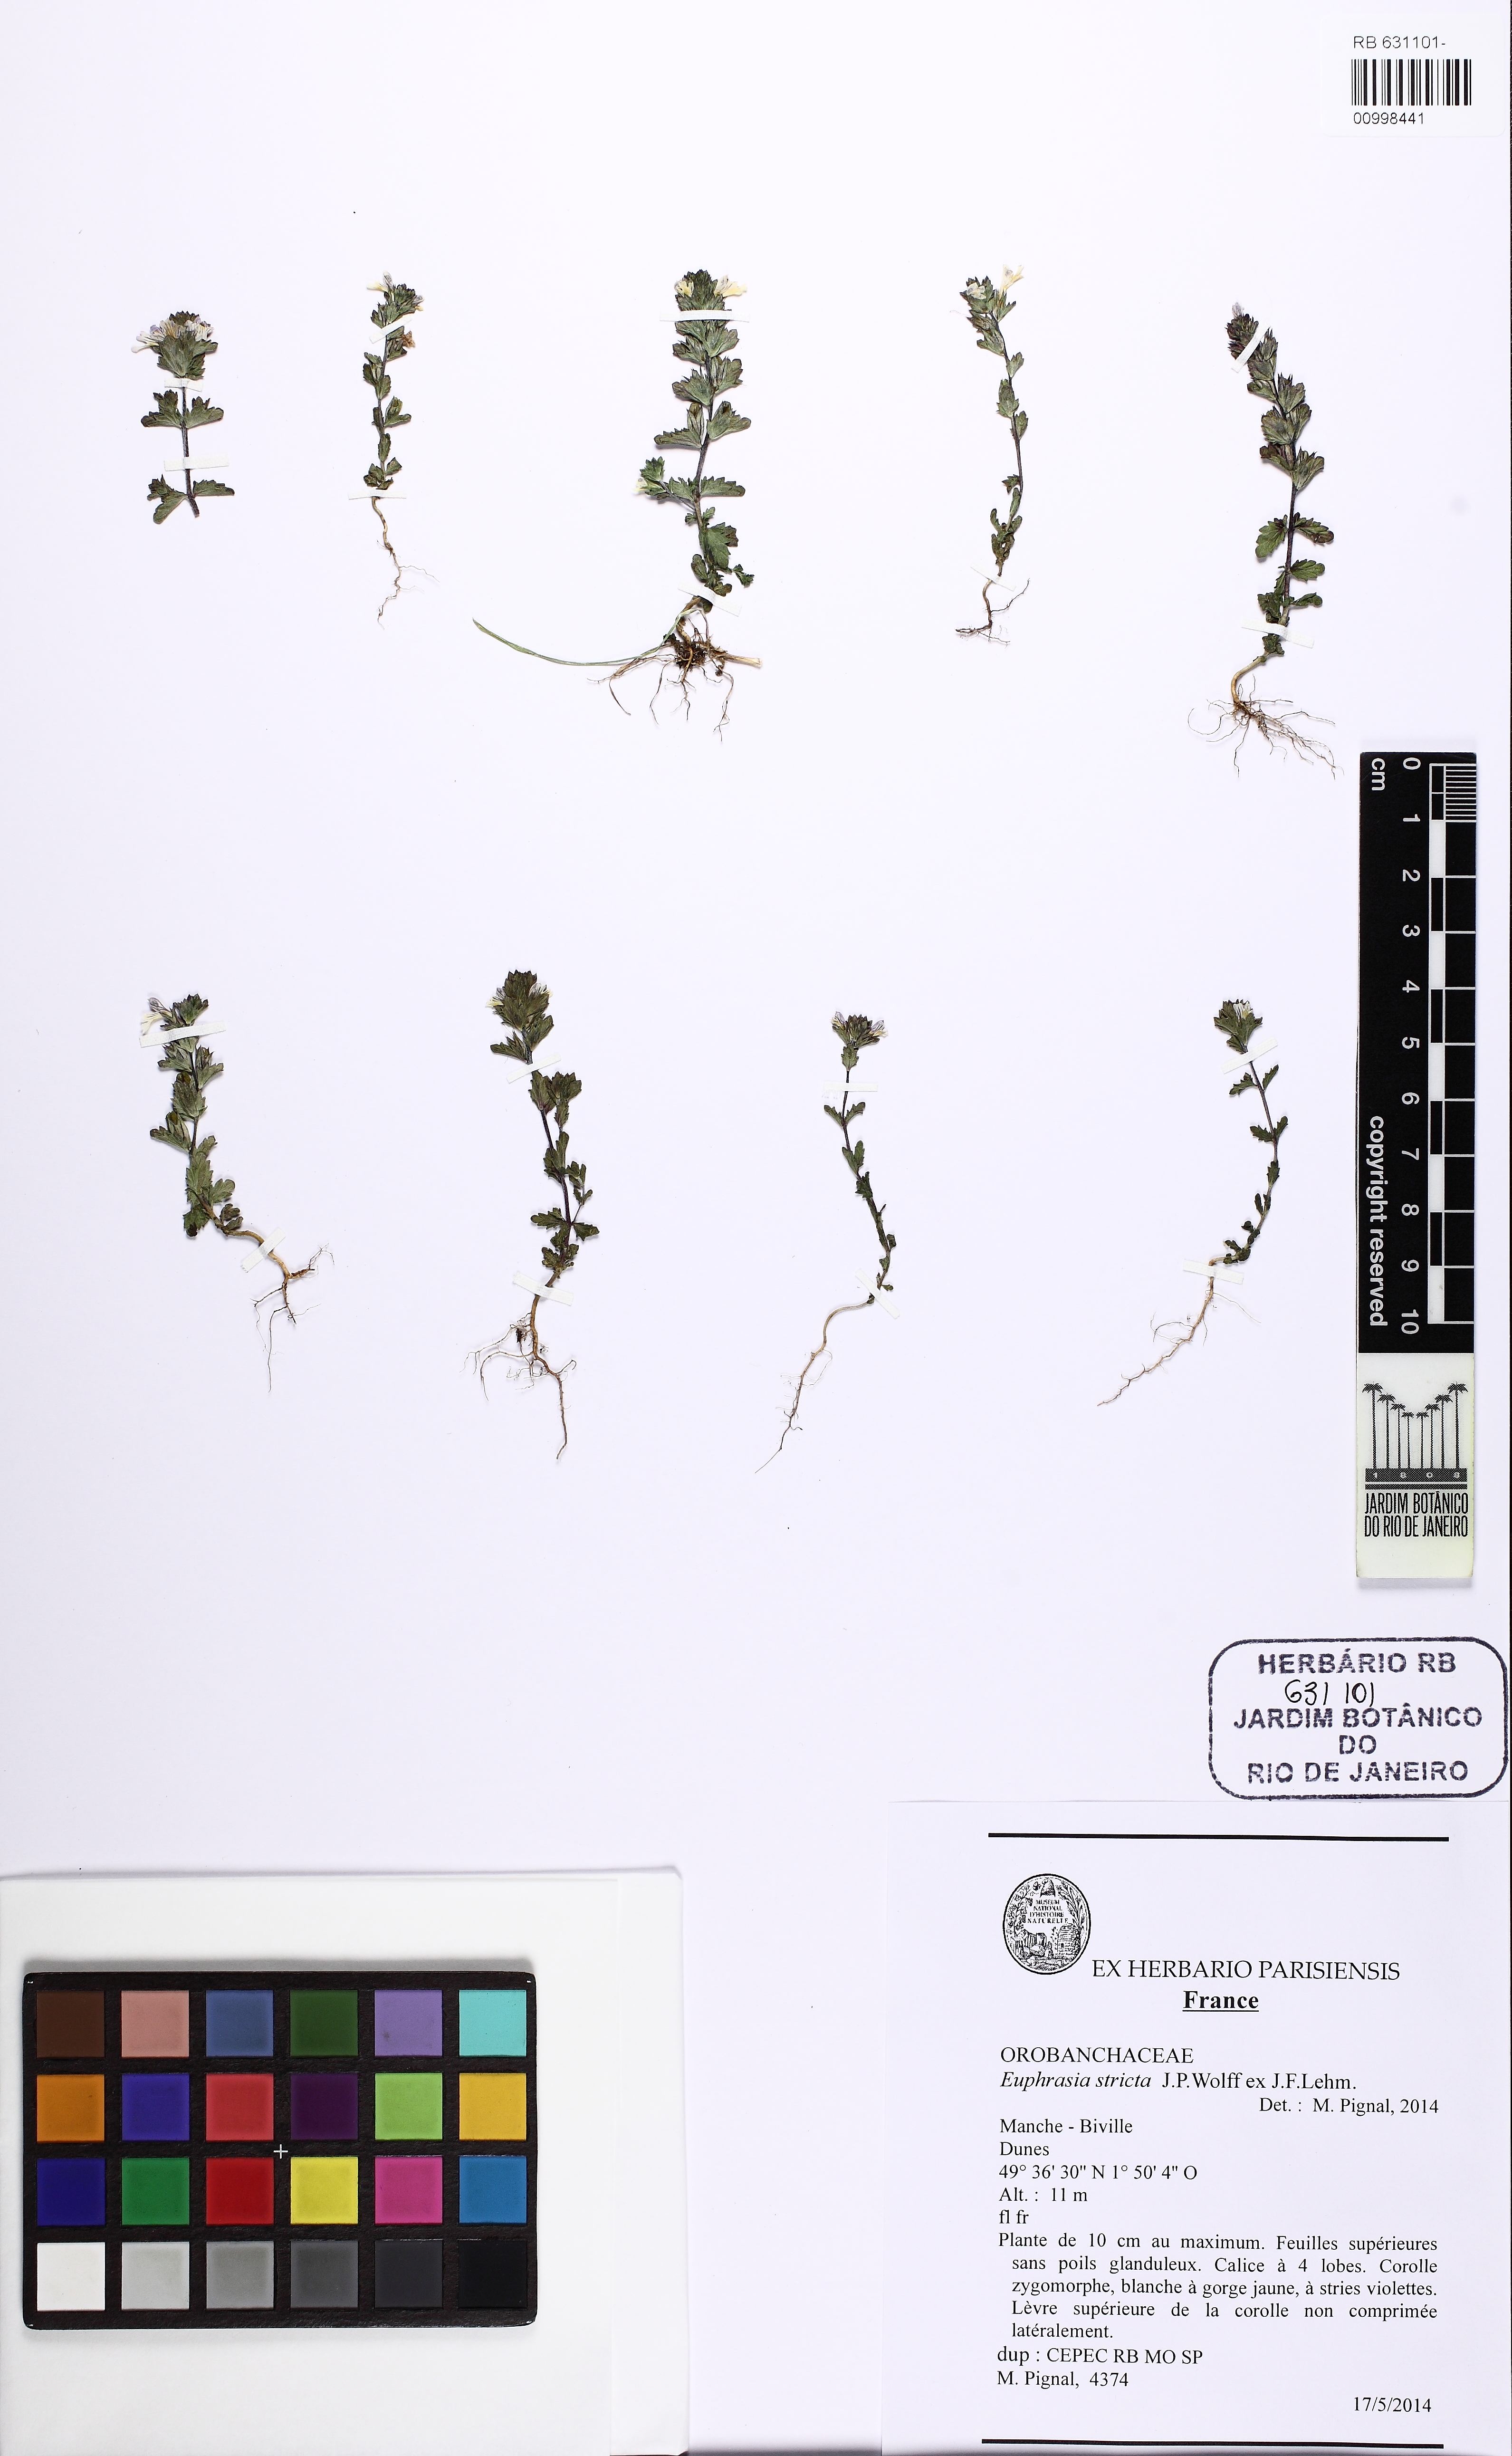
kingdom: Plantae
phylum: Tracheophyta
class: Magnoliopsida
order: Lamiales
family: Orobanchaceae
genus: Euphrasia
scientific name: Euphrasia stricta
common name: Drug eyebright
